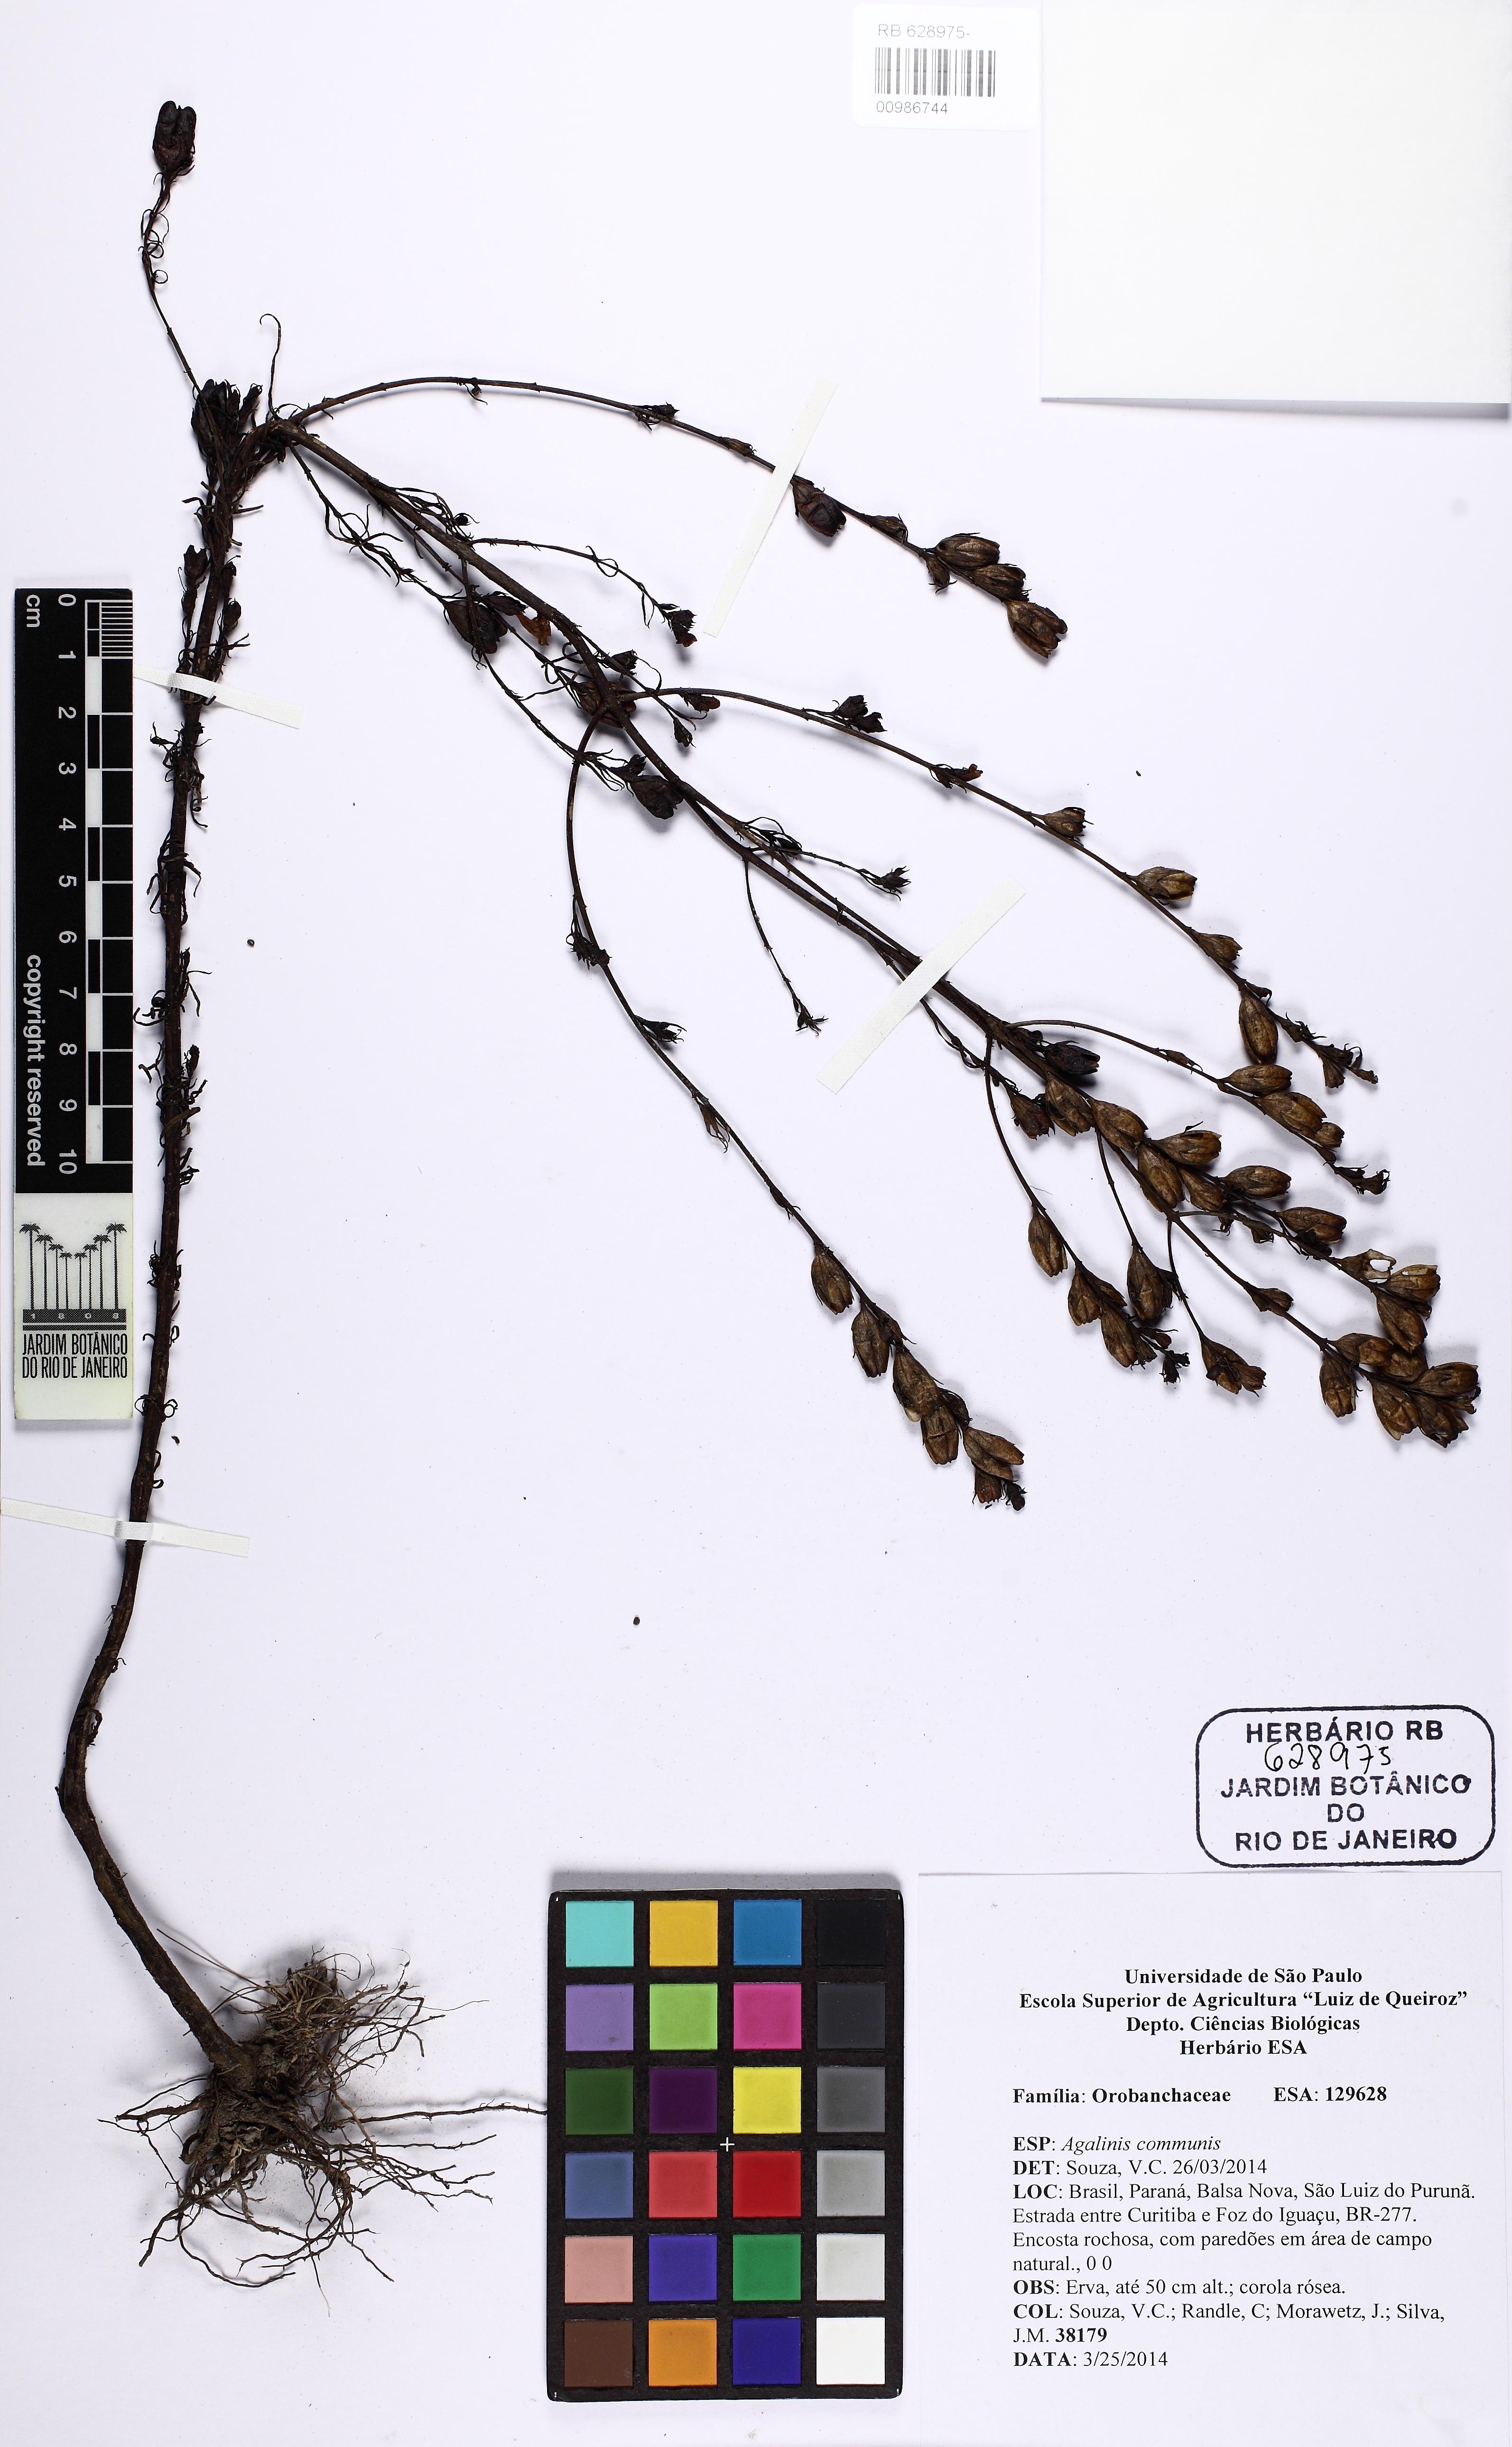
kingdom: Plantae
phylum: Tracheophyta
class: Magnoliopsida
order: Lamiales
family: Orobanchaceae
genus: Agalinis
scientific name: Agalinis communis
